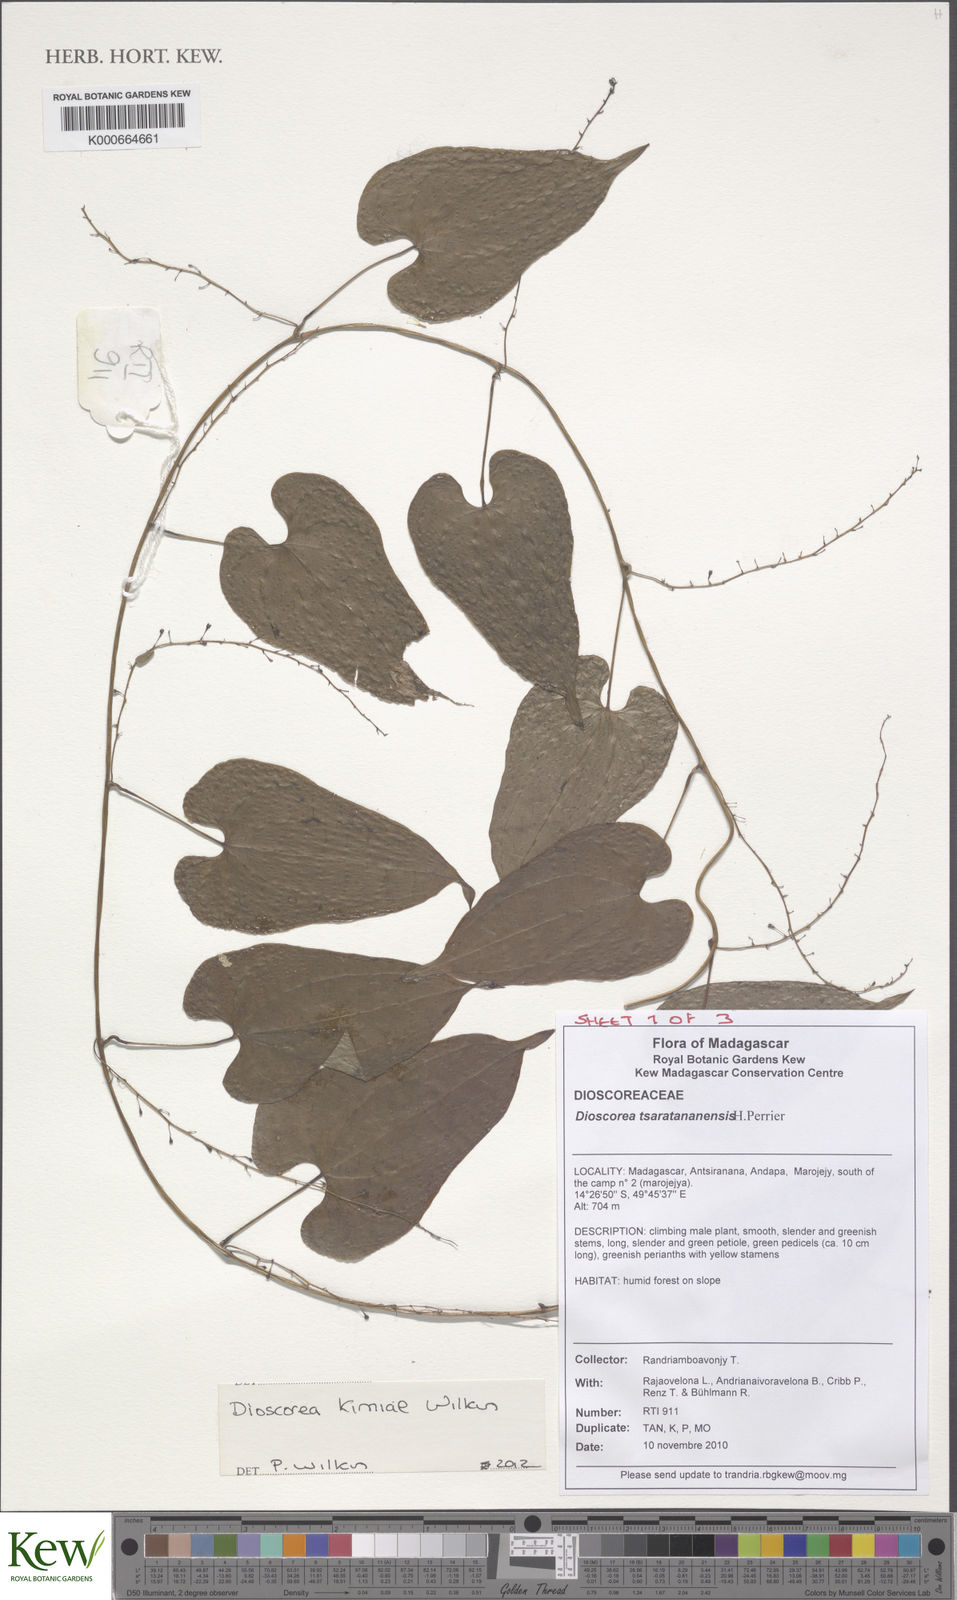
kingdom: Plantae
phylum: Tracheophyta
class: Liliopsida
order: Dioscoreales
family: Dioscoreaceae
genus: Dioscorea
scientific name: Dioscorea kimiae
